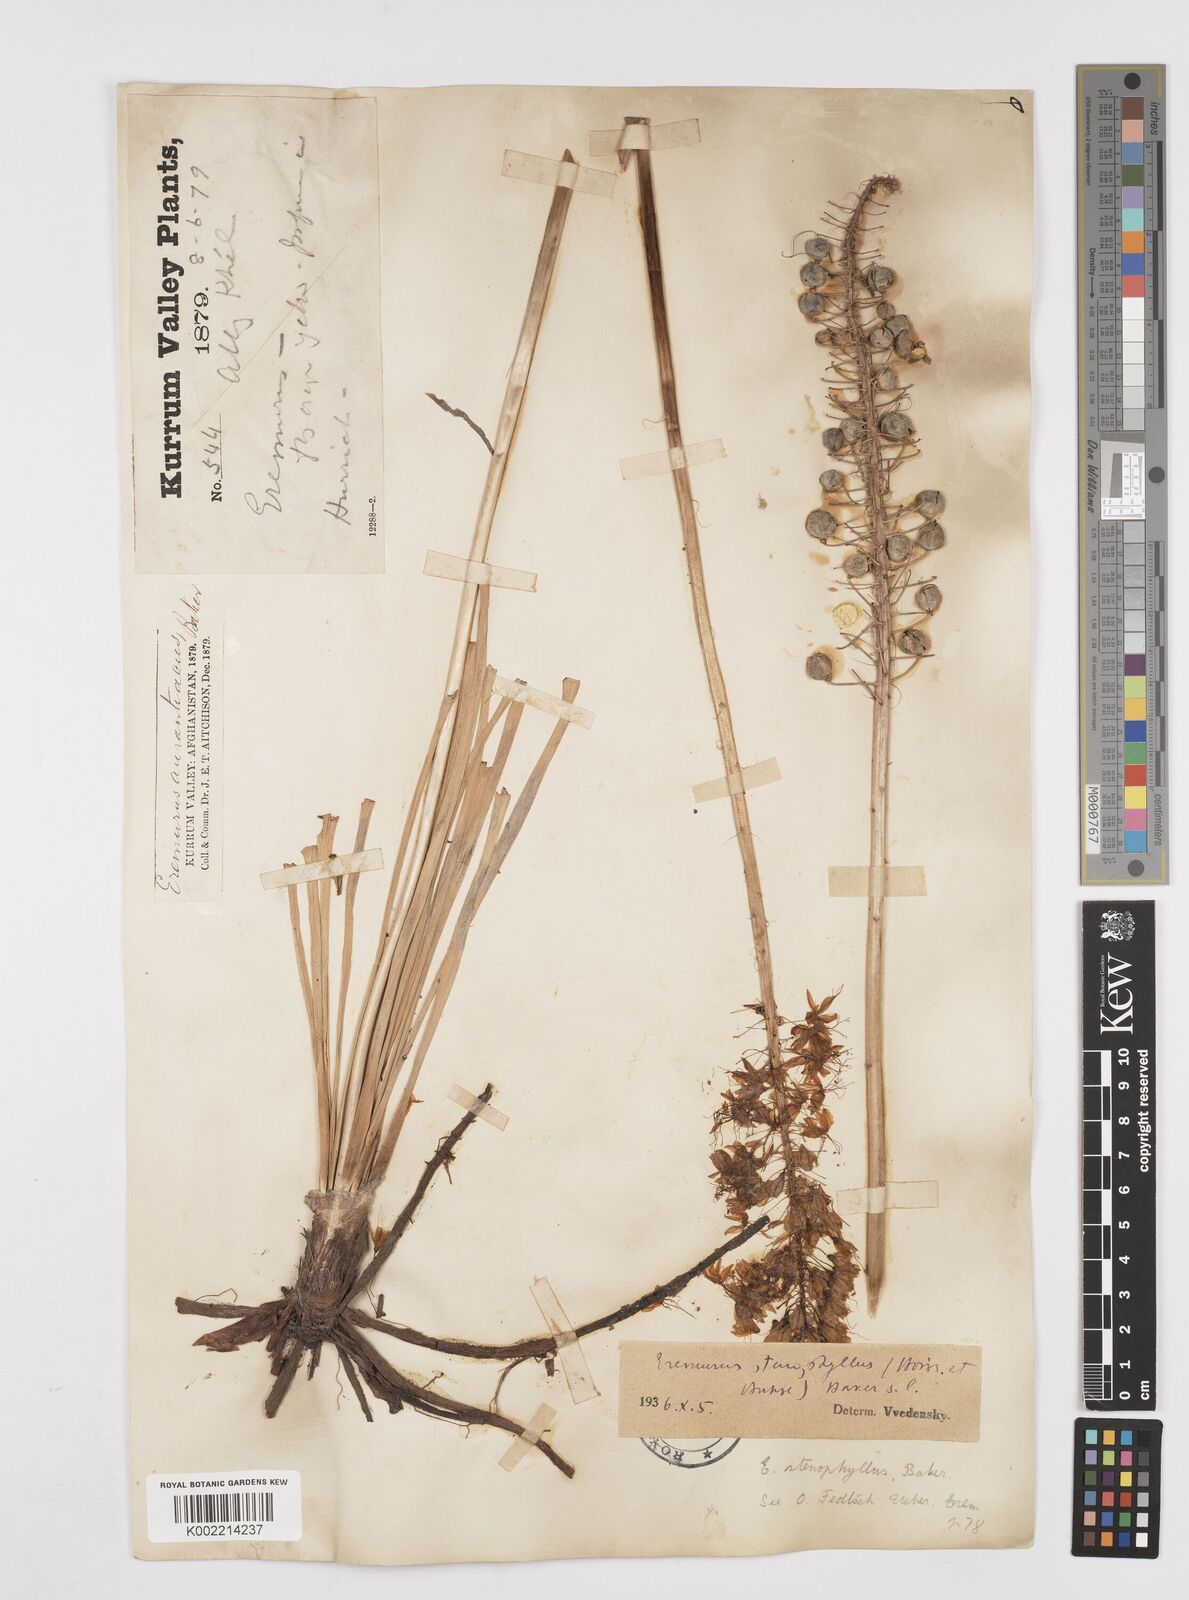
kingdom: Plantae
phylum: Tracheophyta
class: Liliopsida
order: Asparagales
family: Asphodelaceae
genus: Eremurus
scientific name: Eremurus stenophyllus
